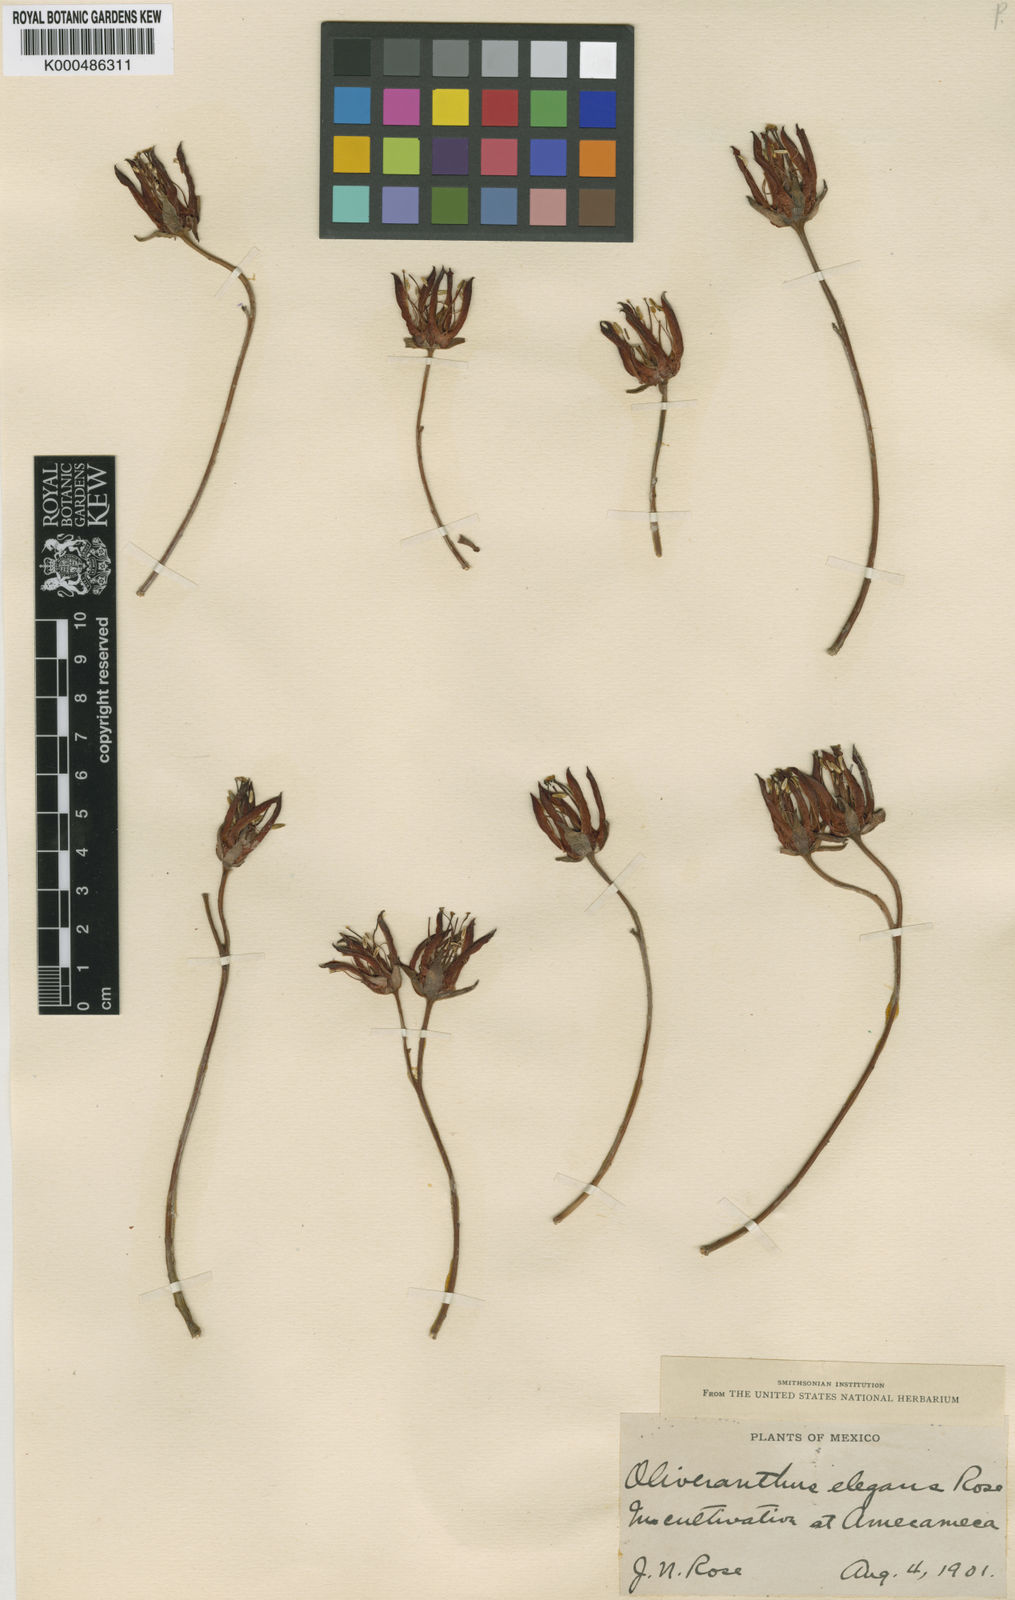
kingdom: Plantae
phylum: Tracheophyta
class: Magnoliopsida
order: Saxifragales
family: Crassulaceae
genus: Echeveria
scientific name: Echeveria harmsii
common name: Red echeveria
